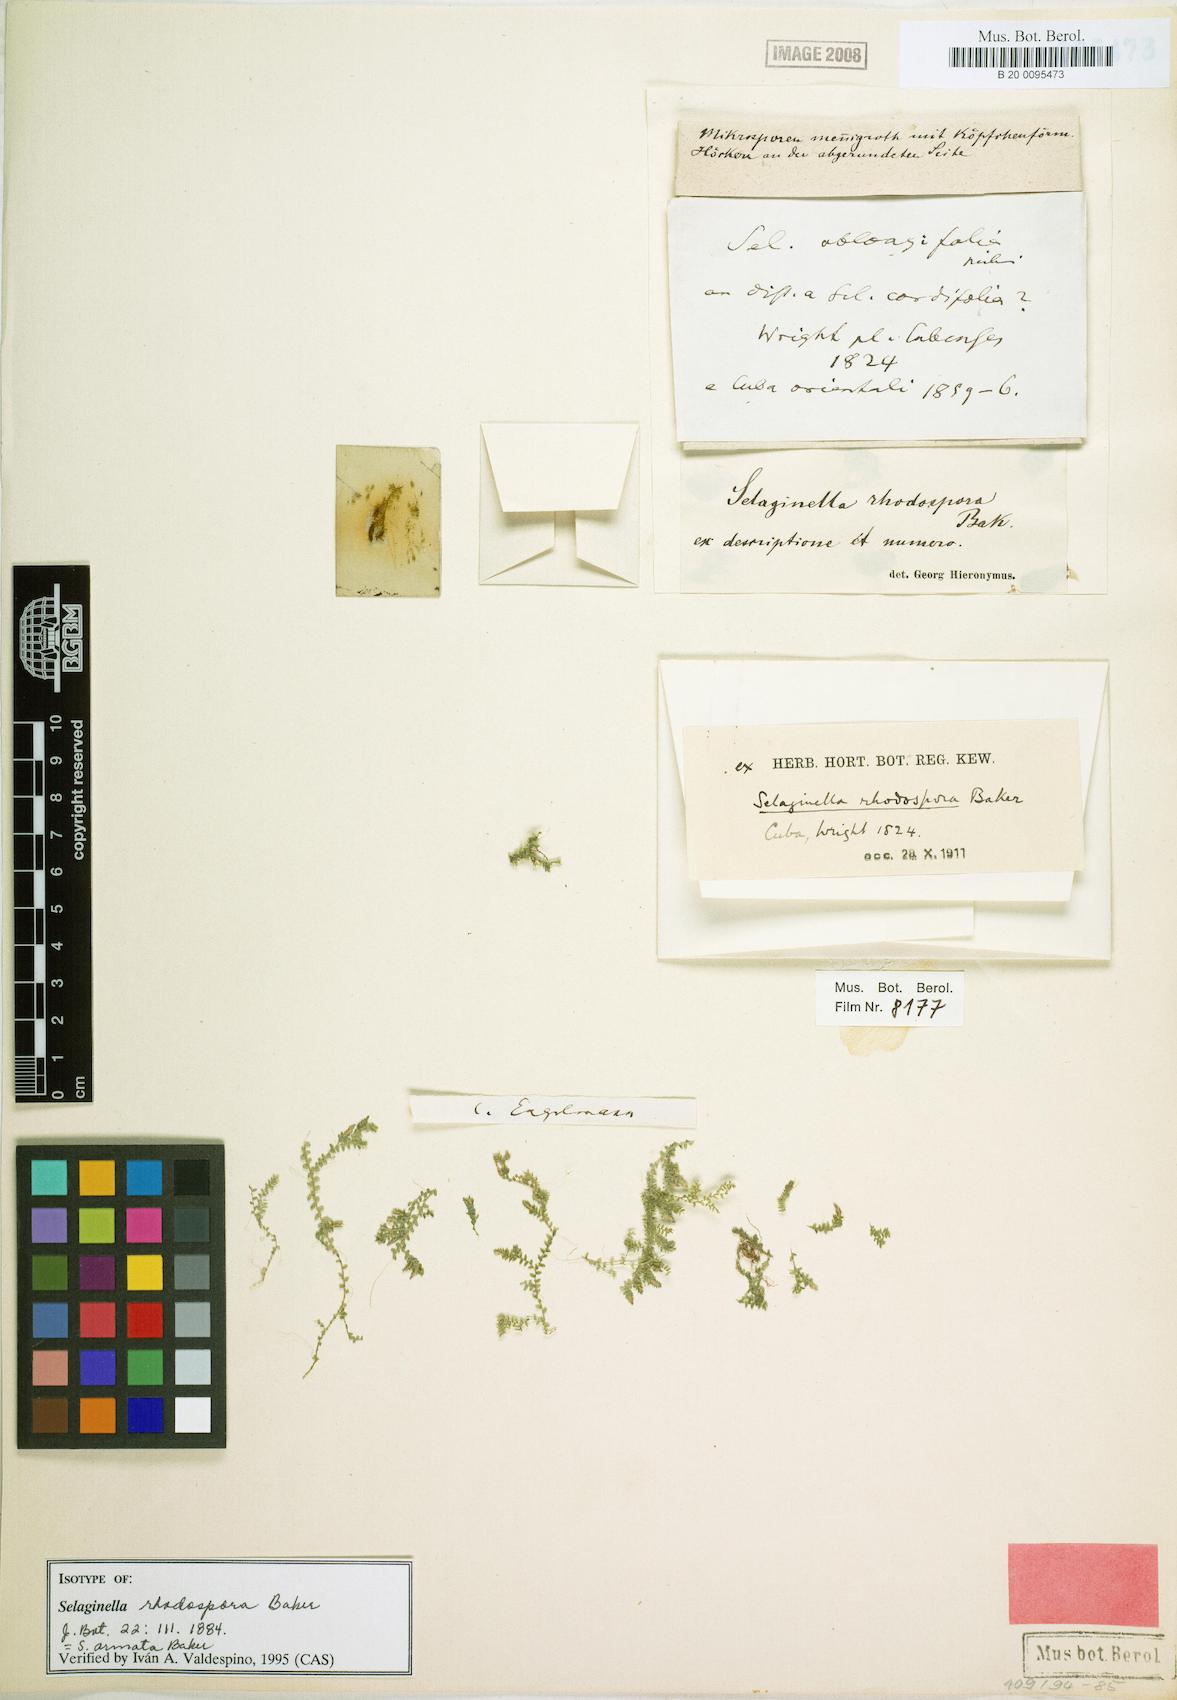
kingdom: Plantae
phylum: Tracheophyta
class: Lycopodiopsida
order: Selaginellales
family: Selaginellaceae
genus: Selaginella
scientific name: Selaginella armata
